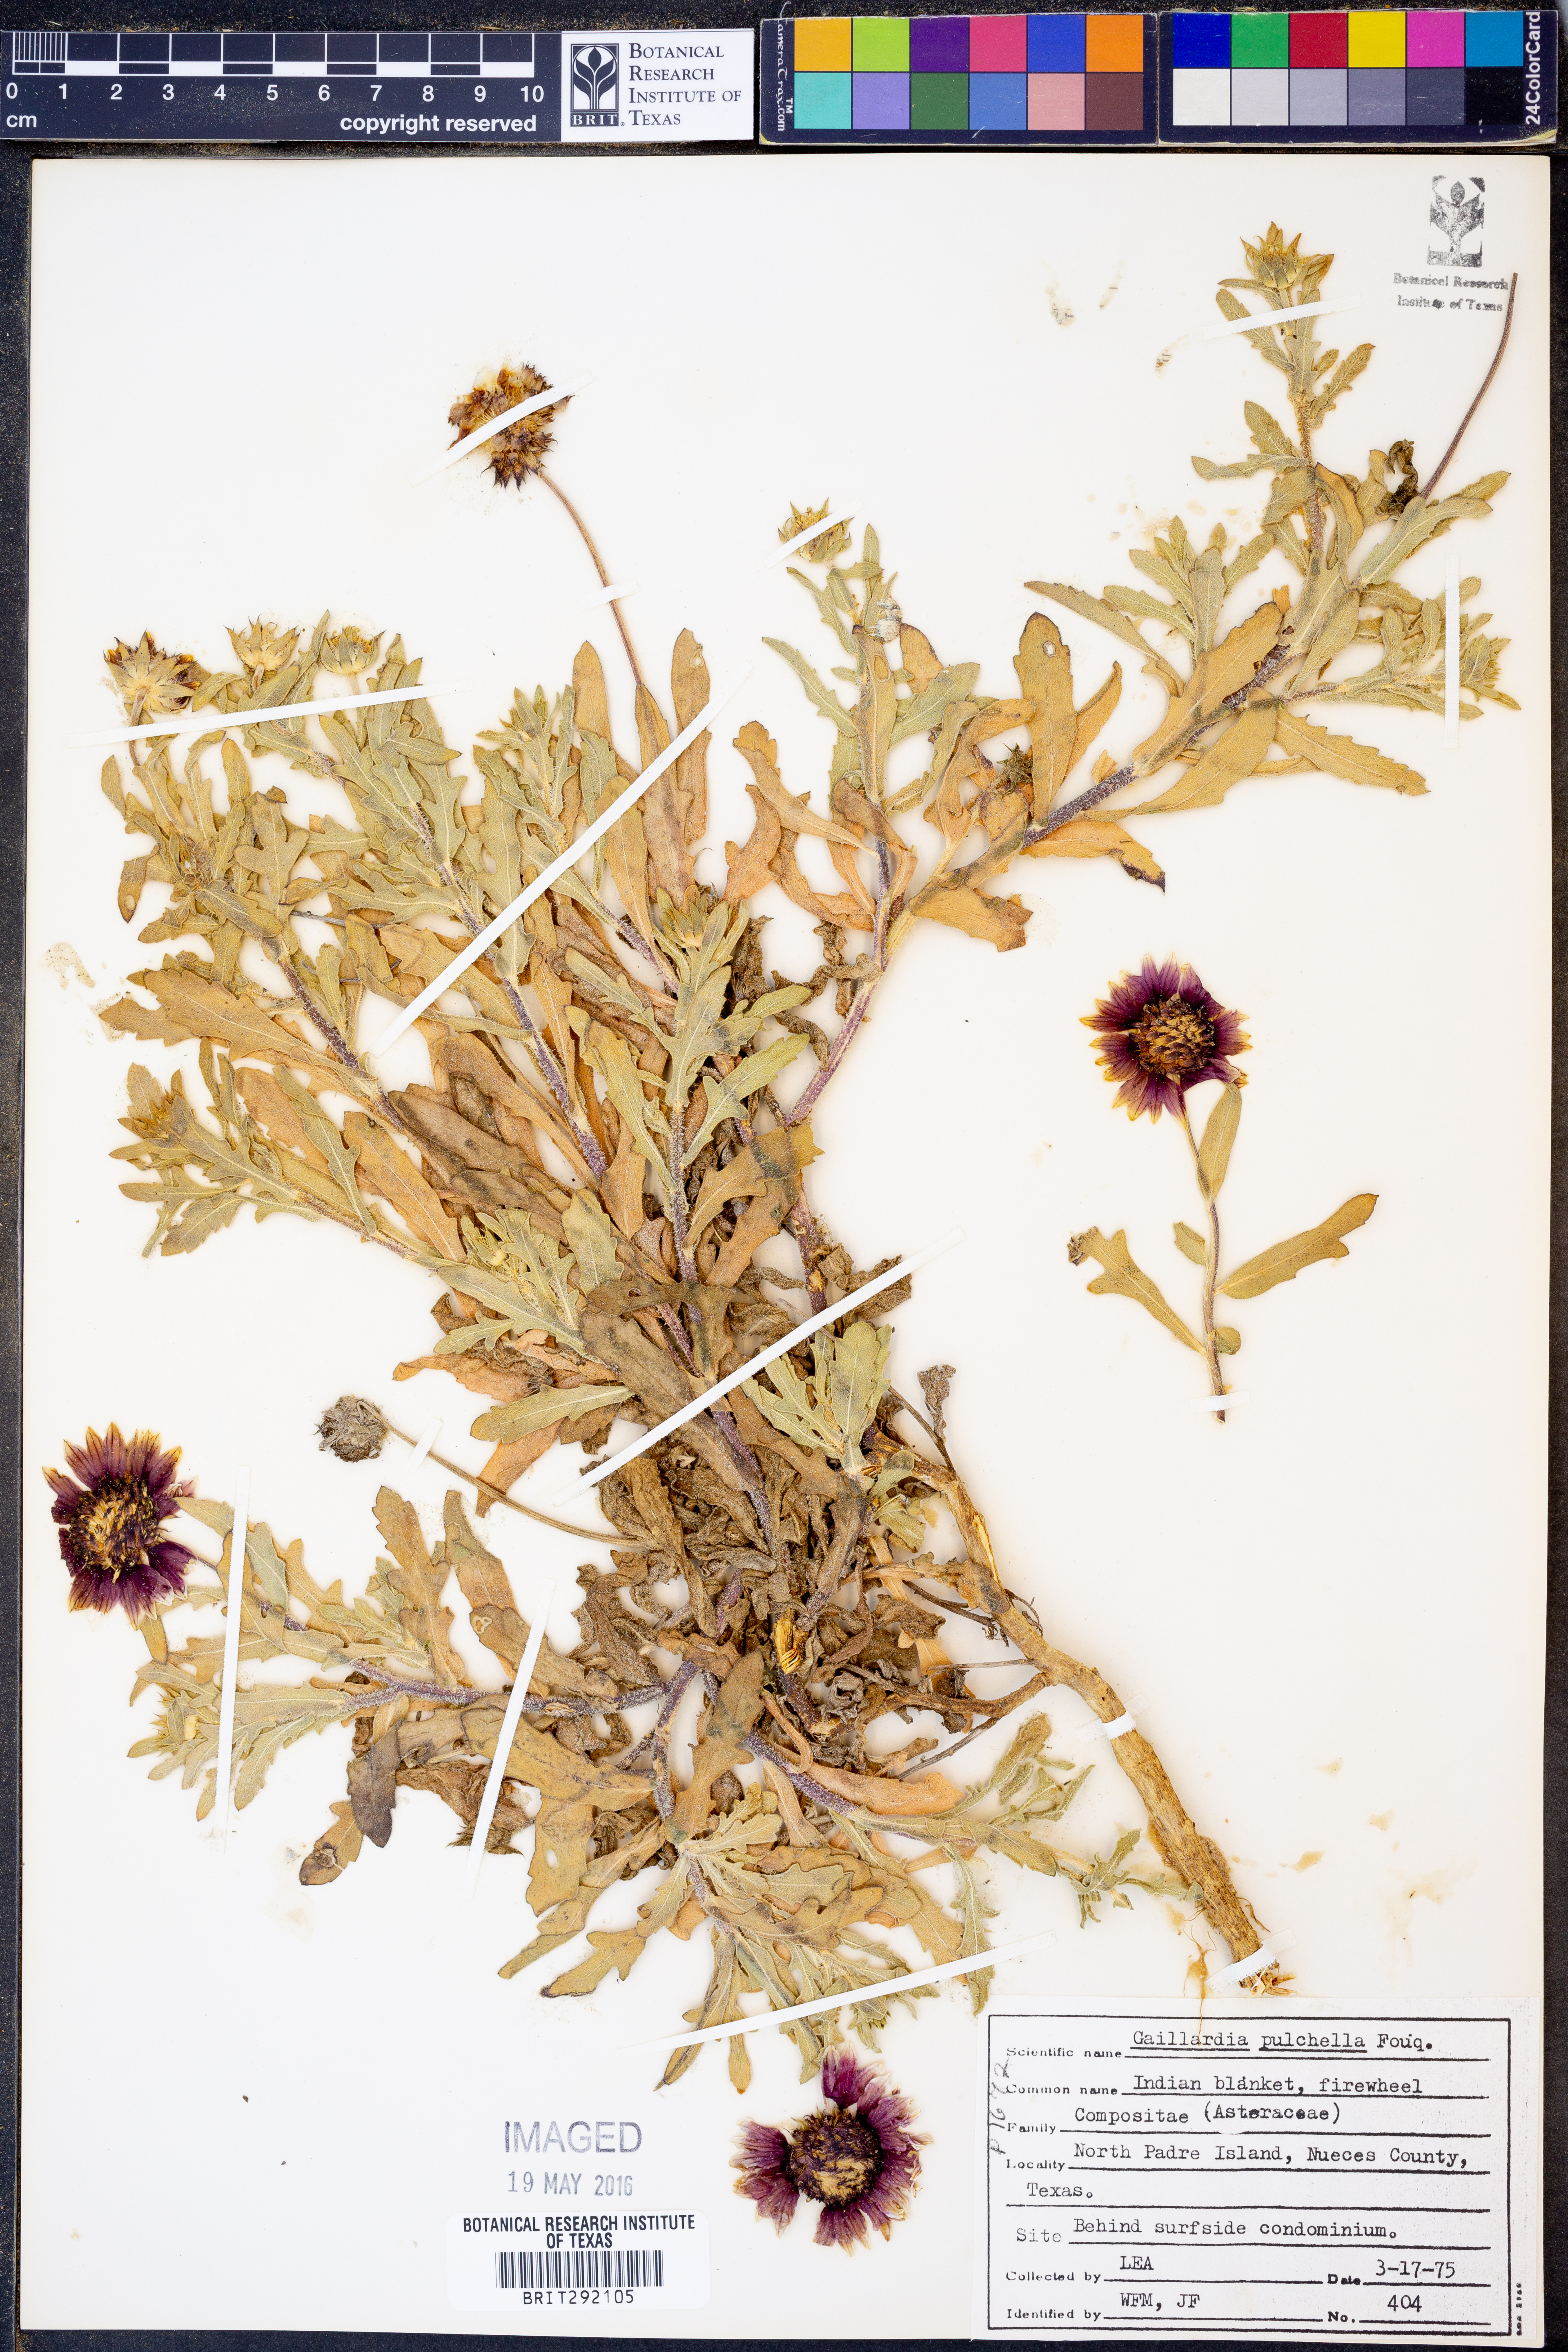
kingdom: Plantae
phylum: Tracheophyta
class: Magnoliopsida
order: Asterales
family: Asteraceae
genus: Gaillardia
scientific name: Gaillardia pulchella
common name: Firewheel
